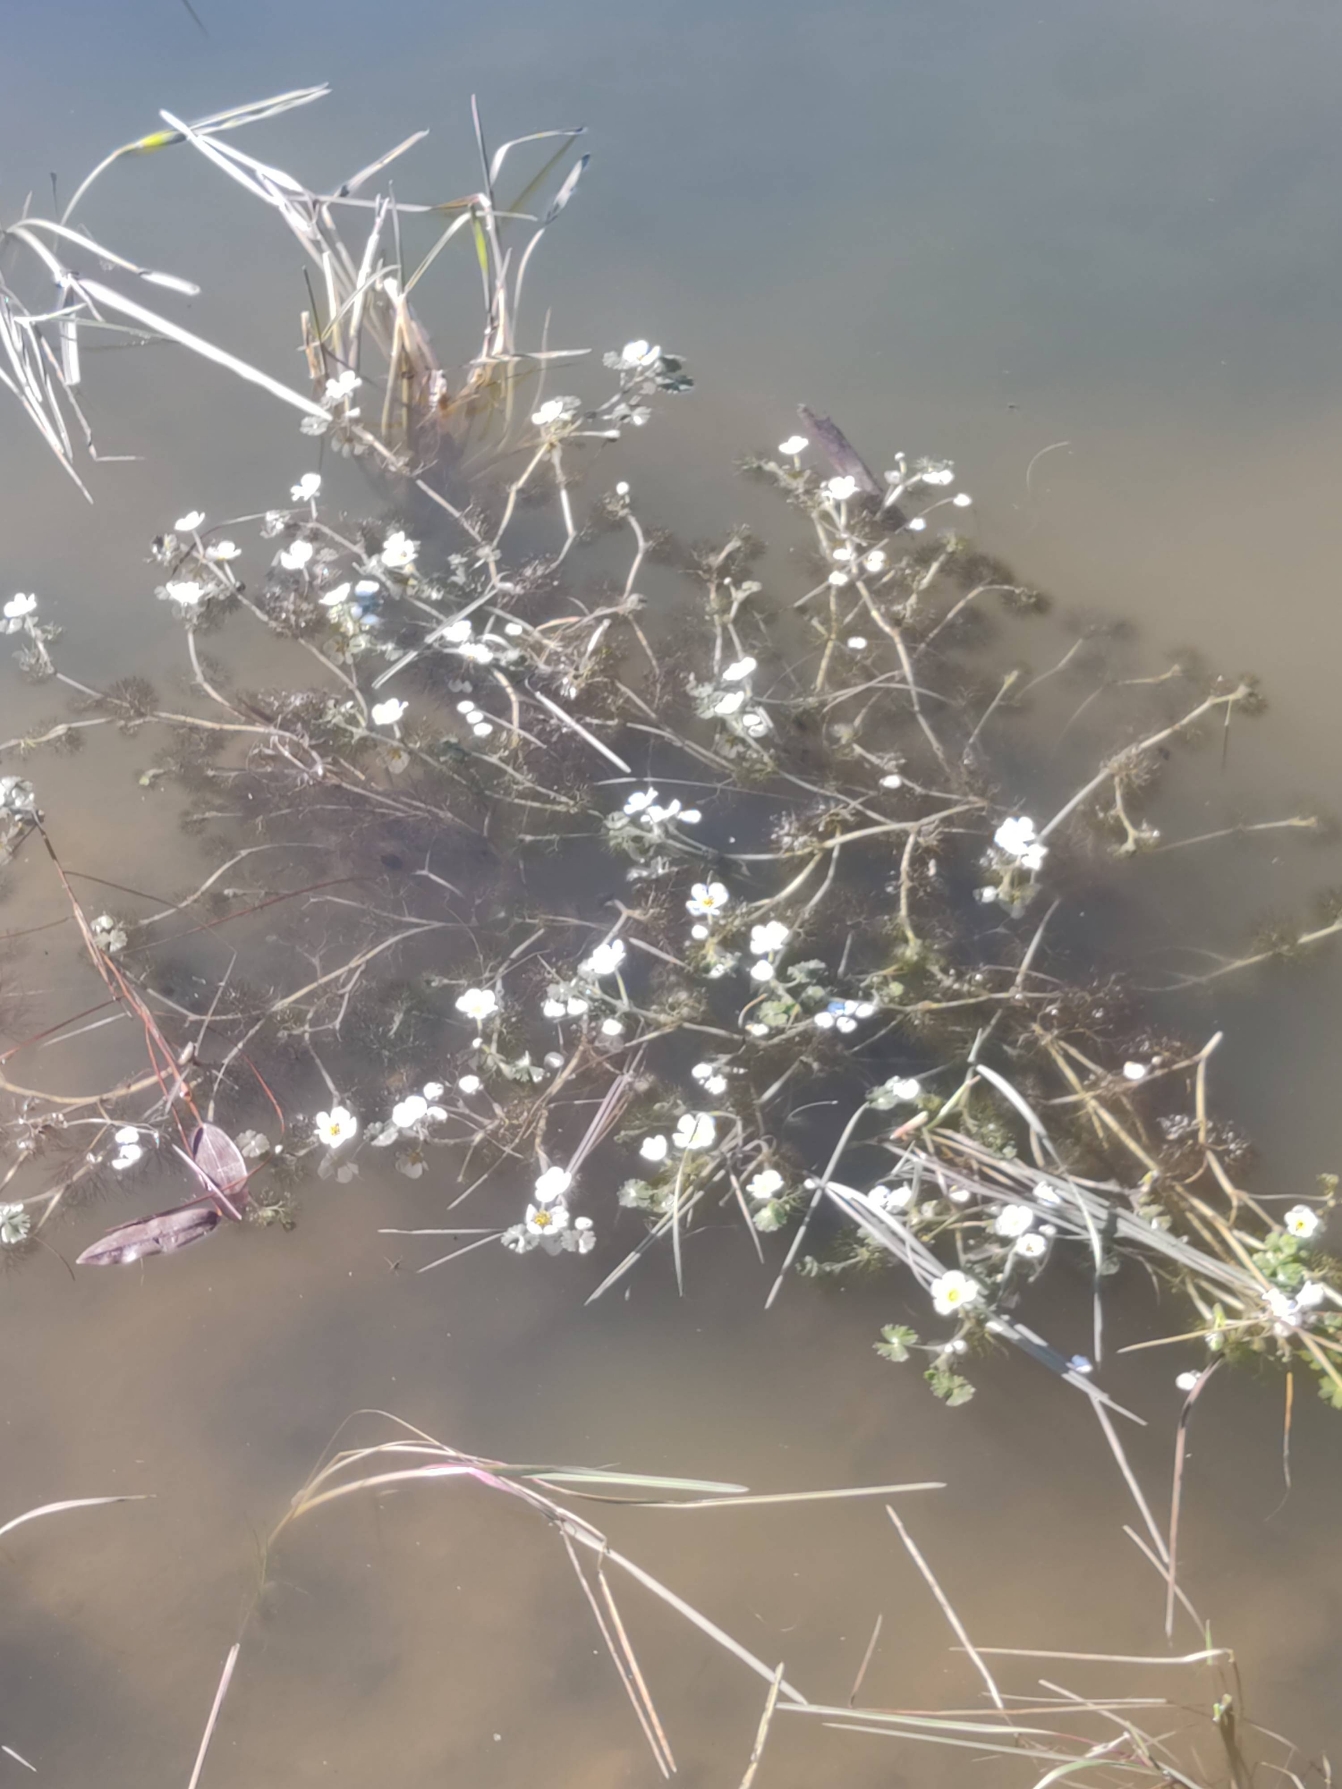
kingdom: Plantae
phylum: Tracheophyta
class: Magnoliopsida
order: Ranunculales
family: Ranunculaceae
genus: Ranunculus
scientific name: Ranunculus aquatilis
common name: Almindelig vandranunkel
